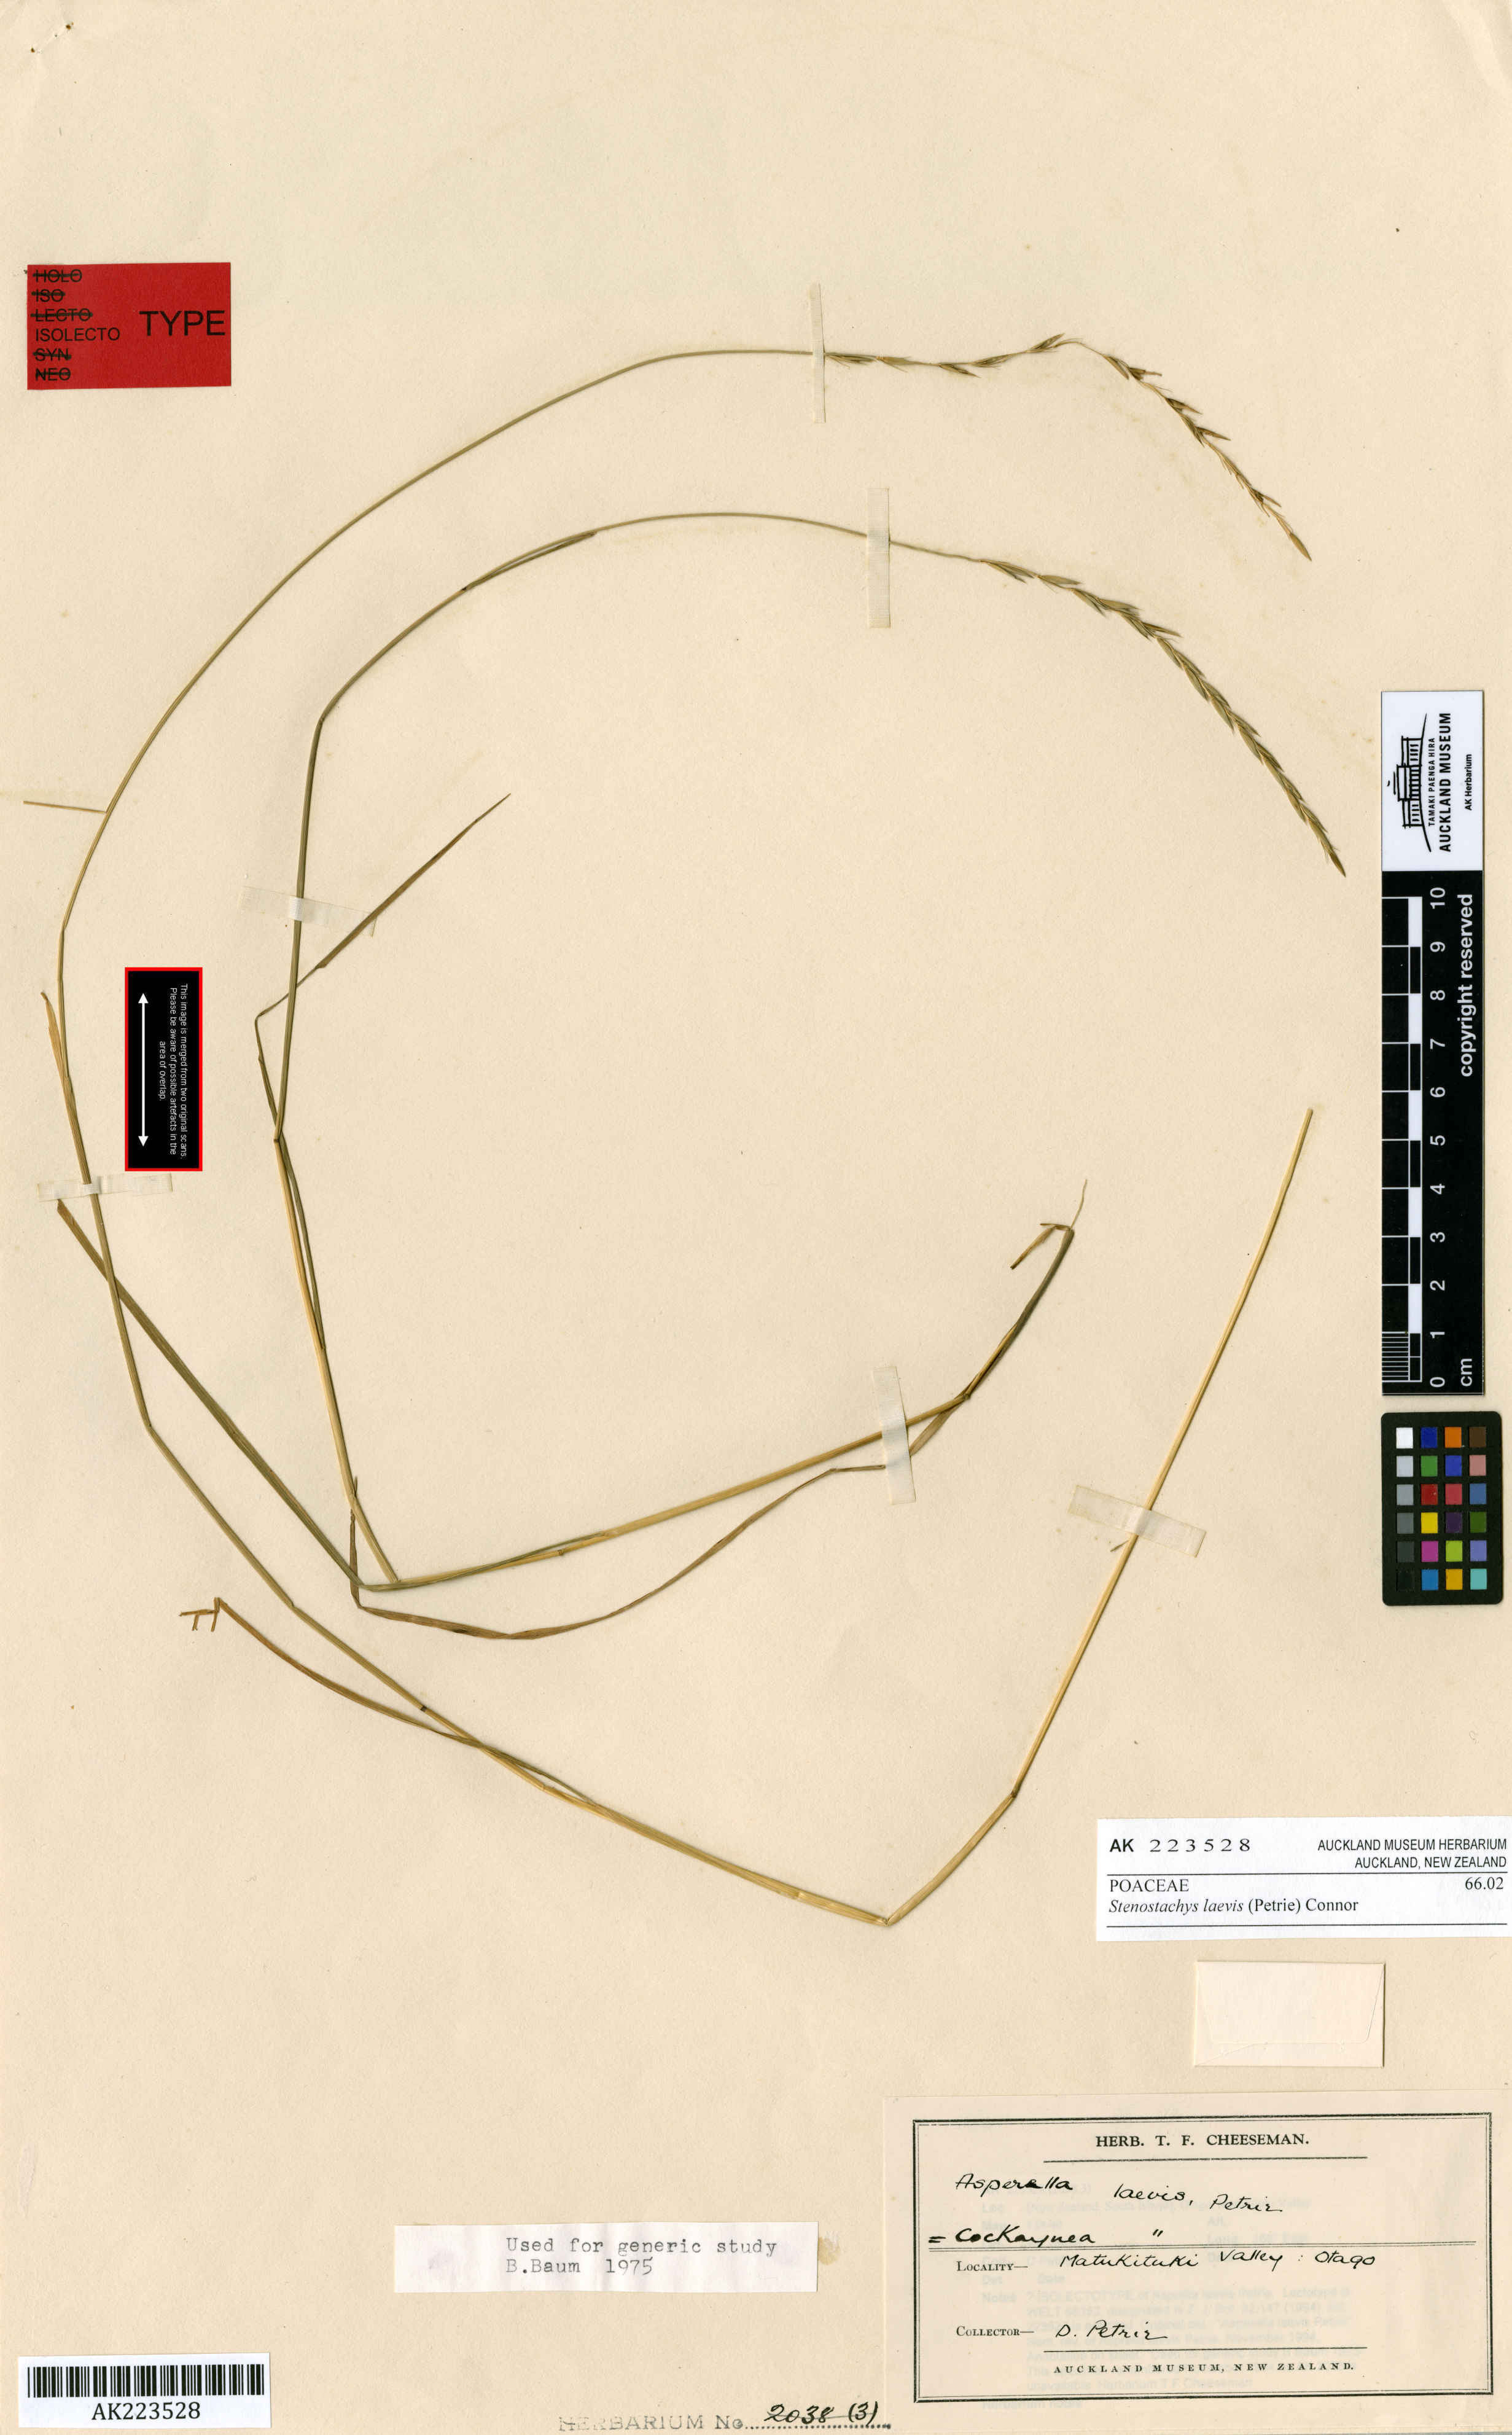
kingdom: Plantae
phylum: Tracheophyta
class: Liliopsida
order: Poales
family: Poaceae
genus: Stenostachys
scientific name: Stenostachys laevis
